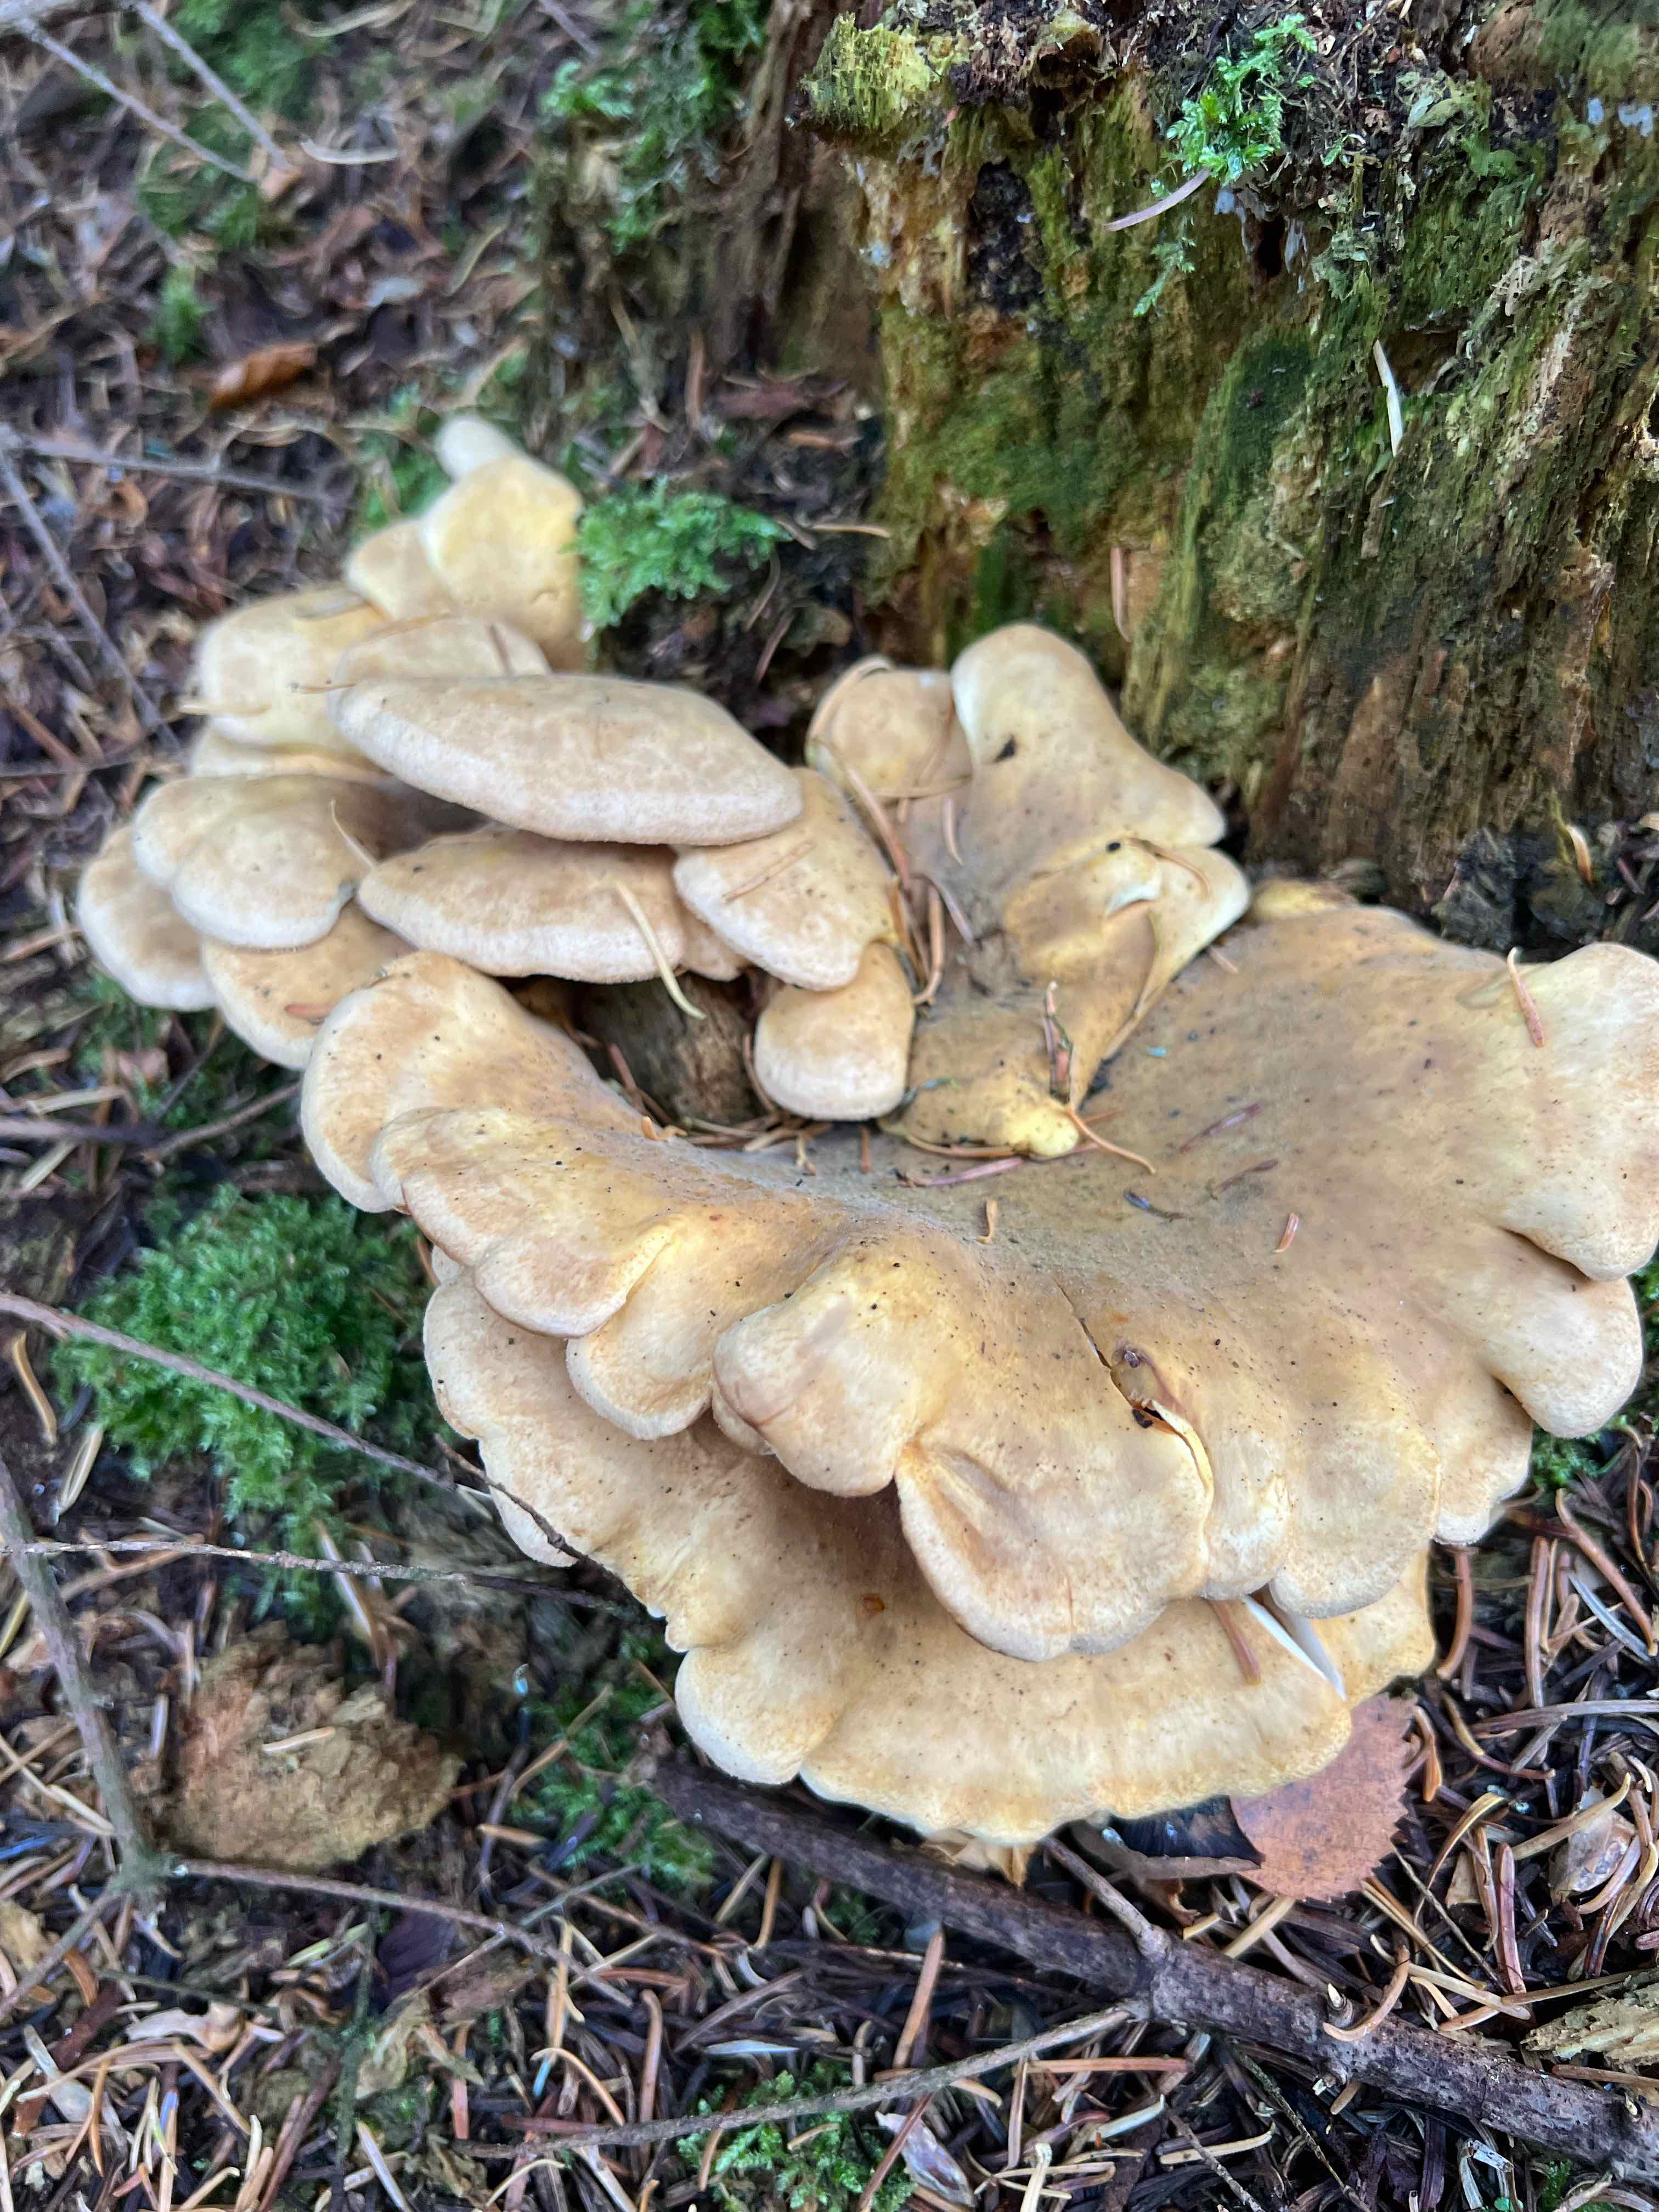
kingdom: Fungi
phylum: Basidiomycota
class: Agaricomycetes
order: Boletales
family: Tapinellaceae
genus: Tapinella
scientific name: Tapinella panuoides
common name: tømmer-viftesvamp
